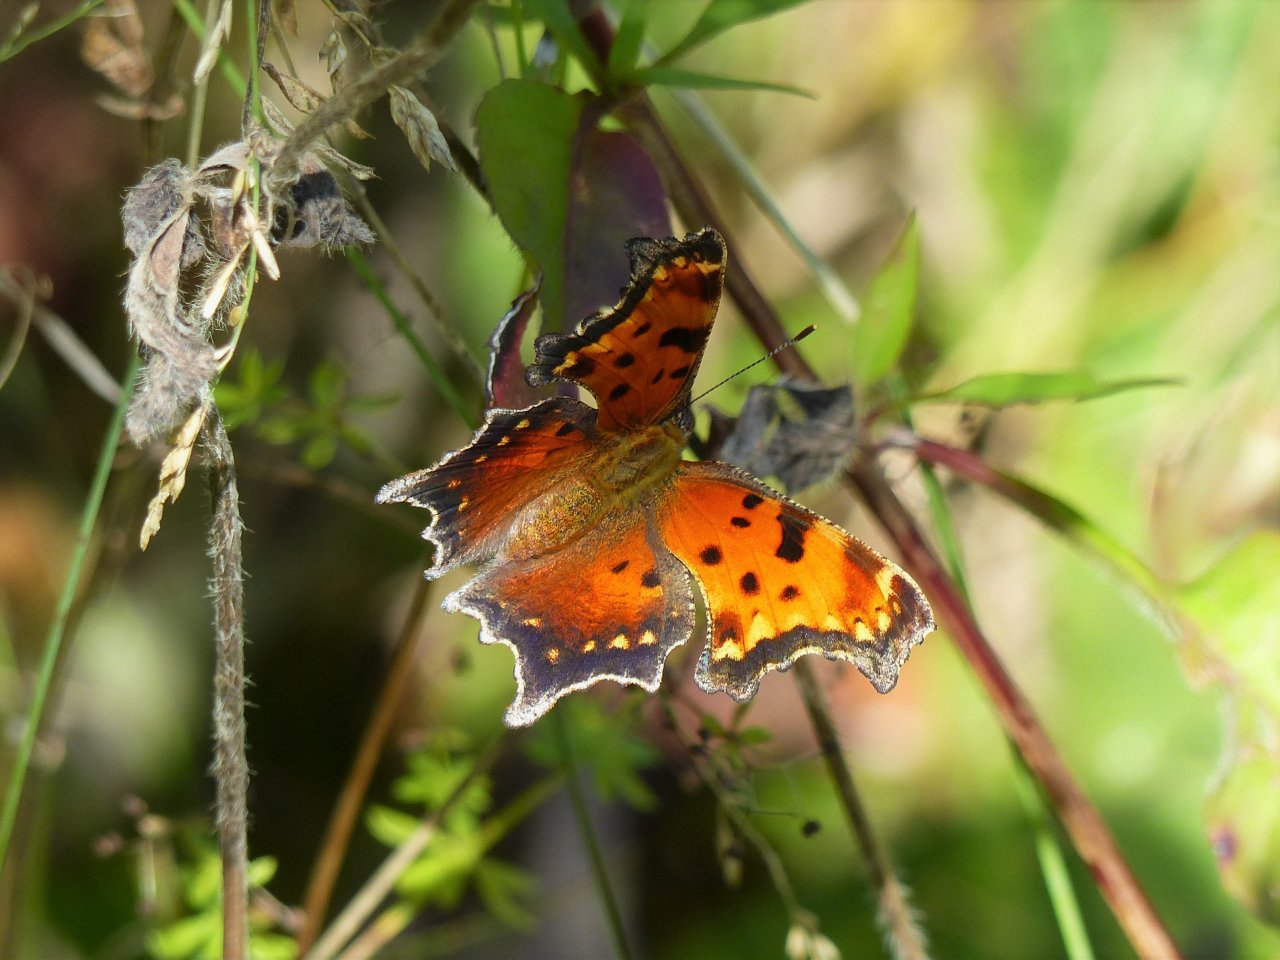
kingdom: Animalia
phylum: Arthropoda
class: Insecta
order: Lepidoptera
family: Nymphalidae
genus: Polygonia
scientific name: Polygonia progne
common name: Gray Comma
